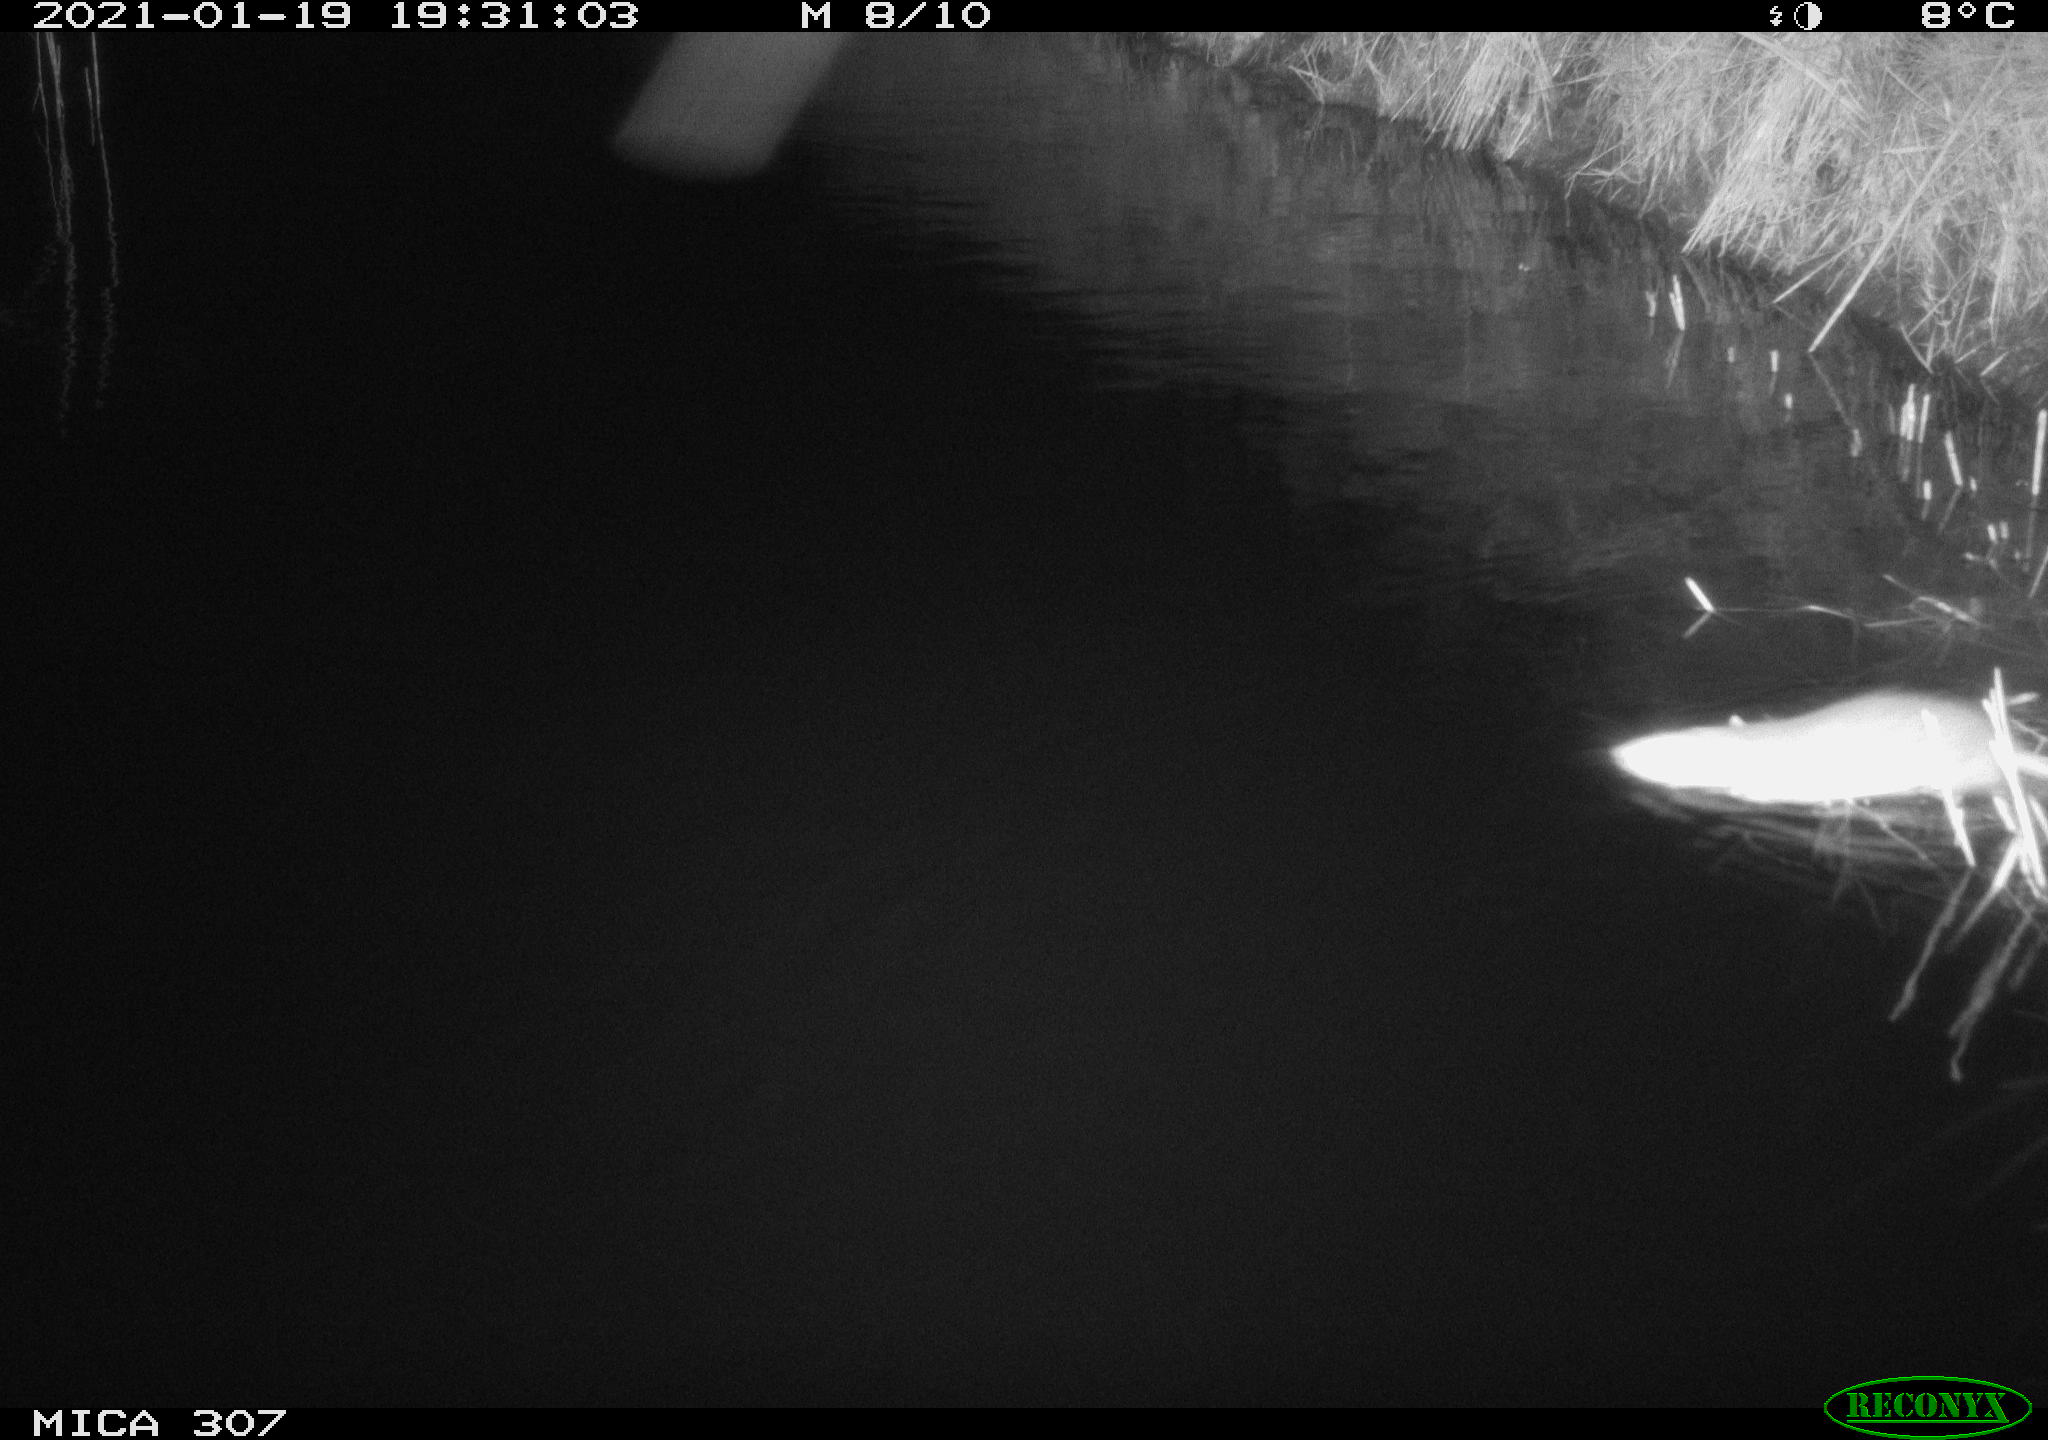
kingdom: Animalia
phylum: Chordata
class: Mammalia
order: Rodentia
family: Muridae
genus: Rattus
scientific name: Rattus norvegicus
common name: Brown rat
